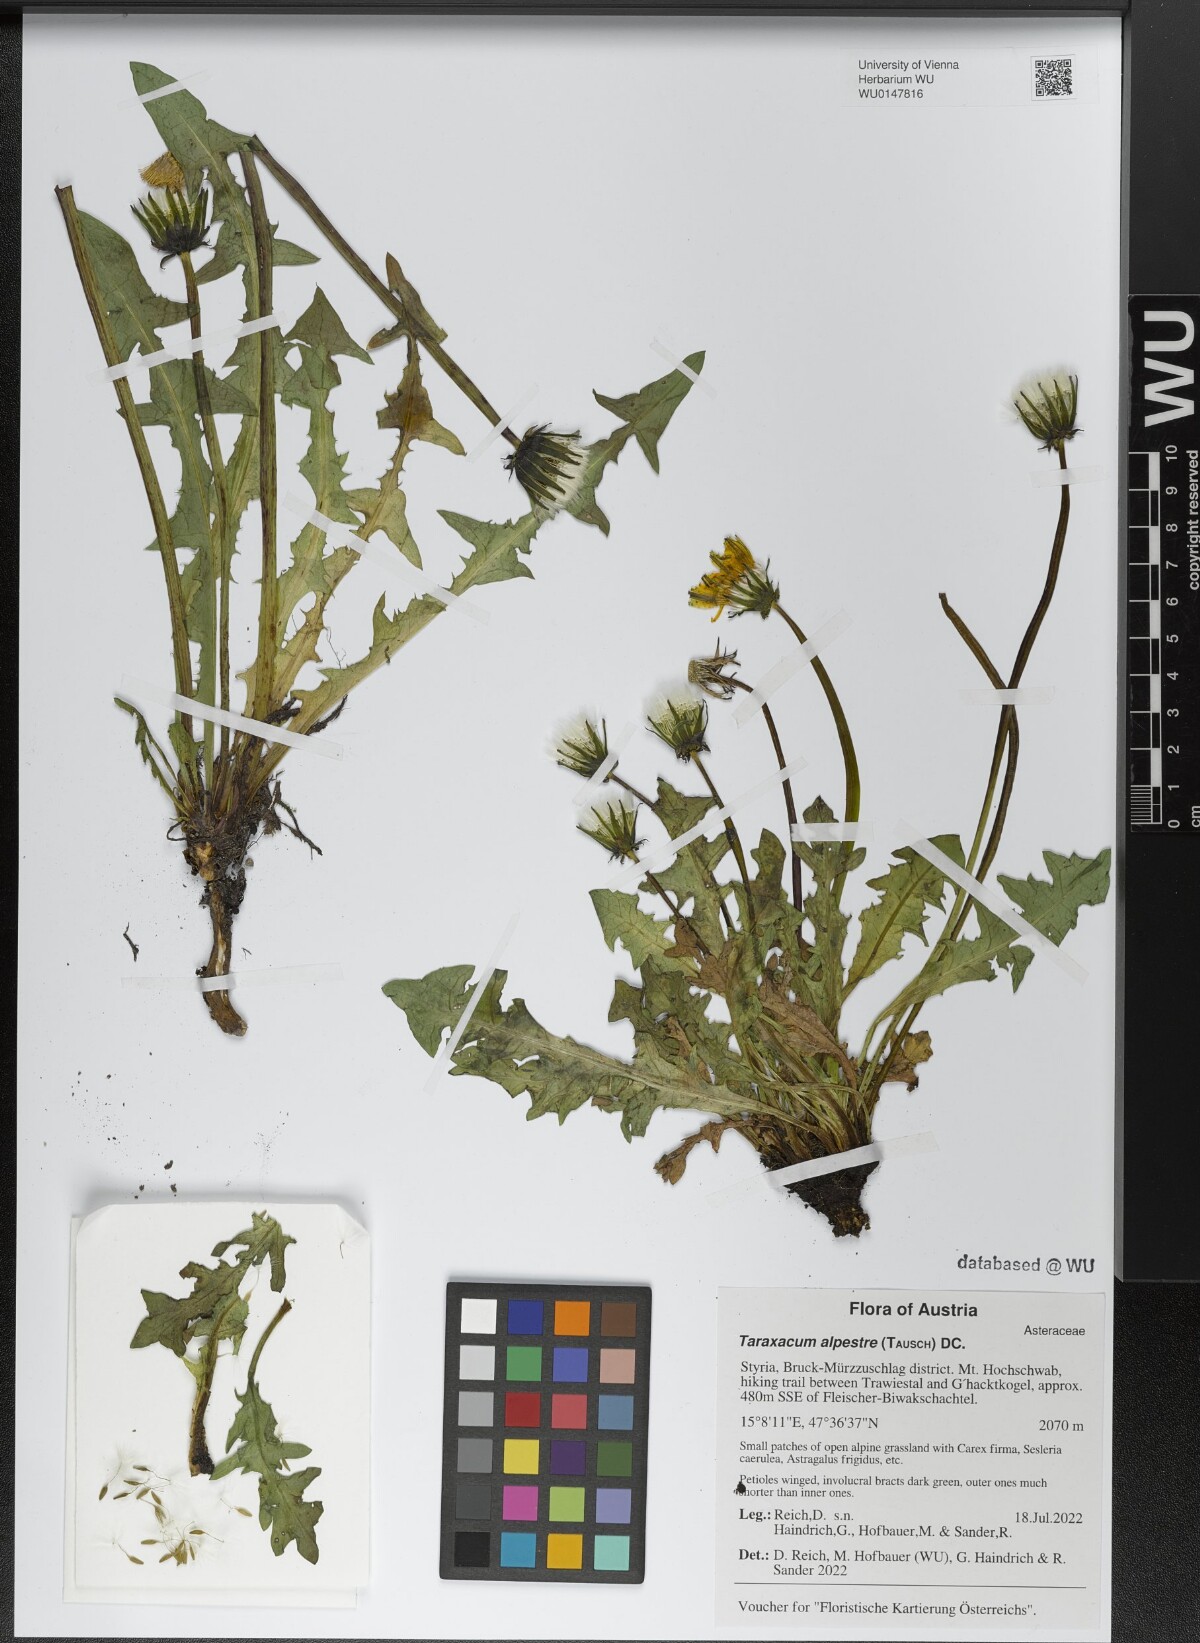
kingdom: Plantae
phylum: Tracheophyta
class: Magnoliopsida
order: Asterales
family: Asteraceae
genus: Taraxacum
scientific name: Taraxacum alpestre
